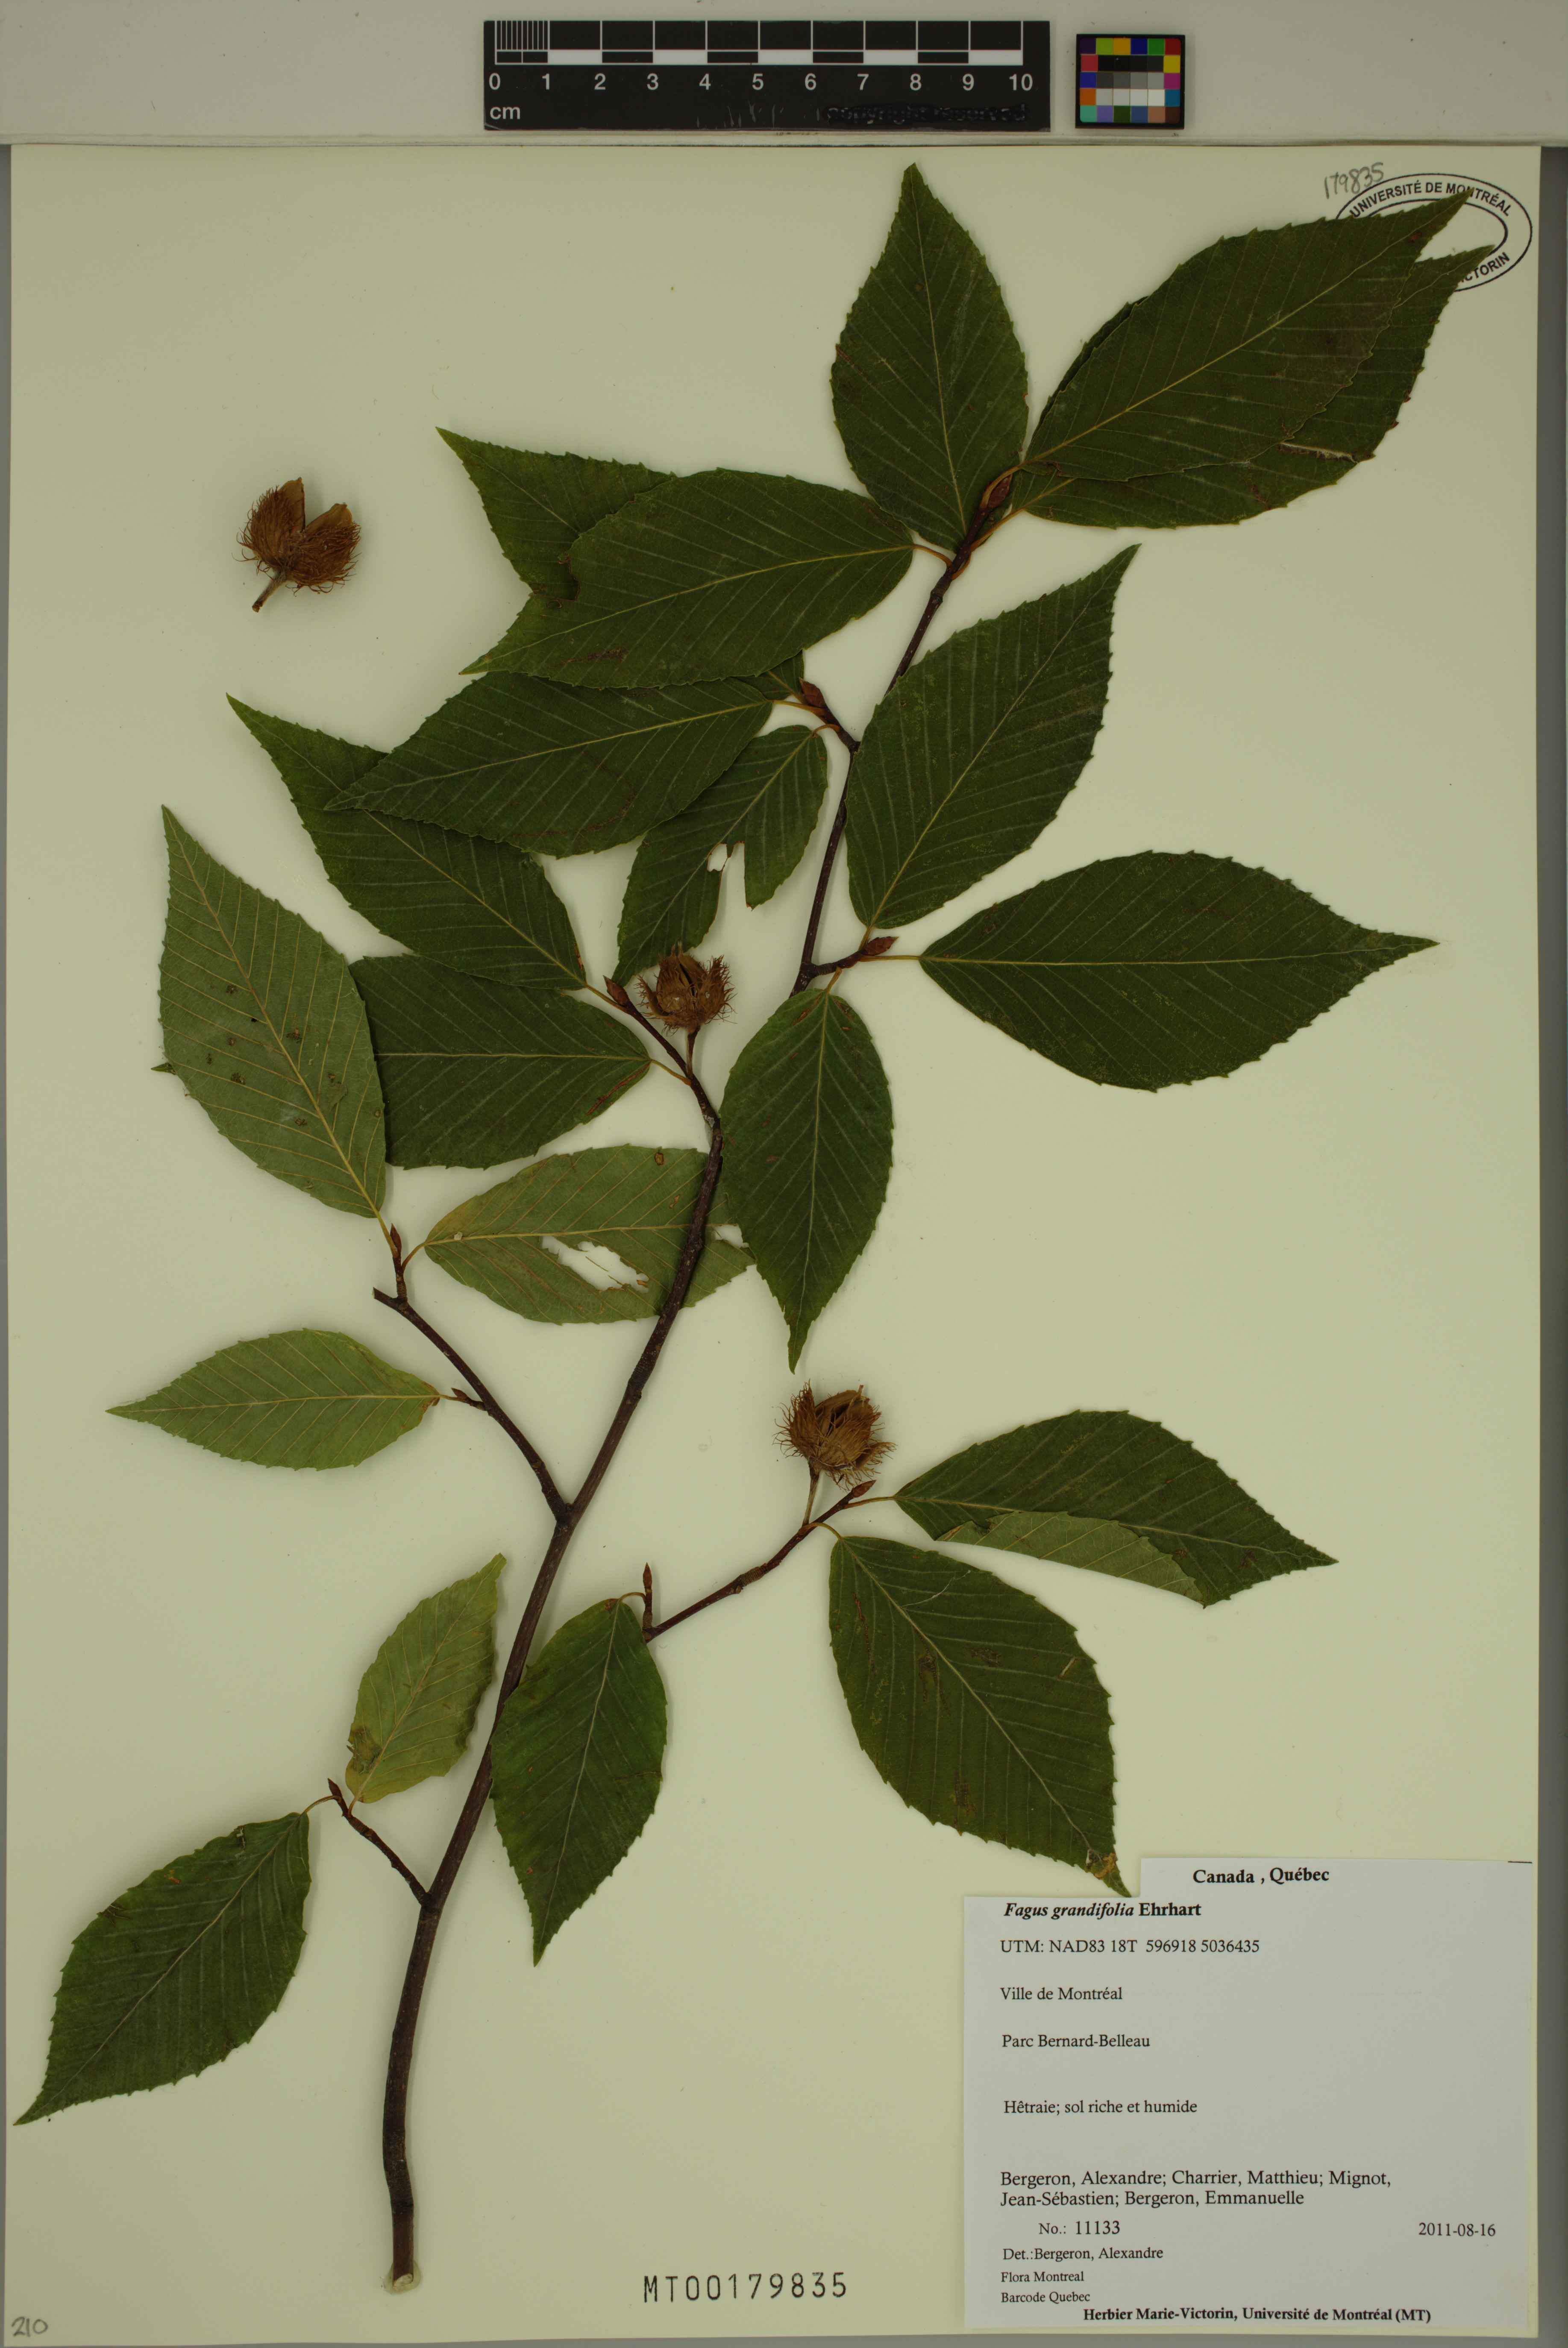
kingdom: Plantae
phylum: Tracheophyta
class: Magnoliopsida
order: Fagales
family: Fagaceae
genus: Fagus
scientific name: Fagus grandifolia
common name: American beech
